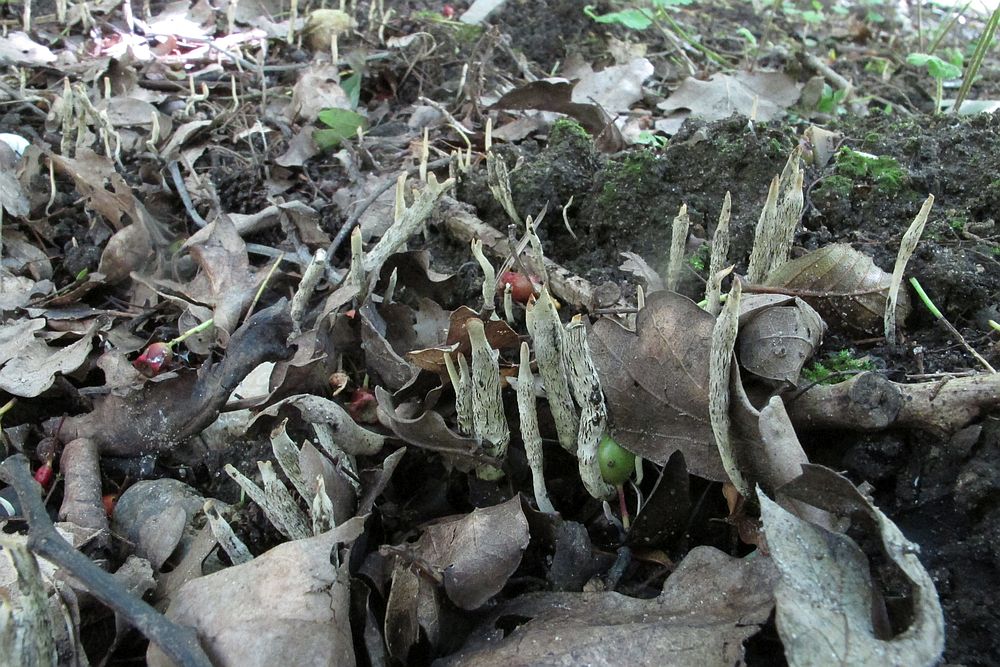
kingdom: Fungi
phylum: Ascomycota
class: Sordariomycetes
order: Xylariales
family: Xylariaceae
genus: Xylaria
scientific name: Xylaria oxyacanthae
